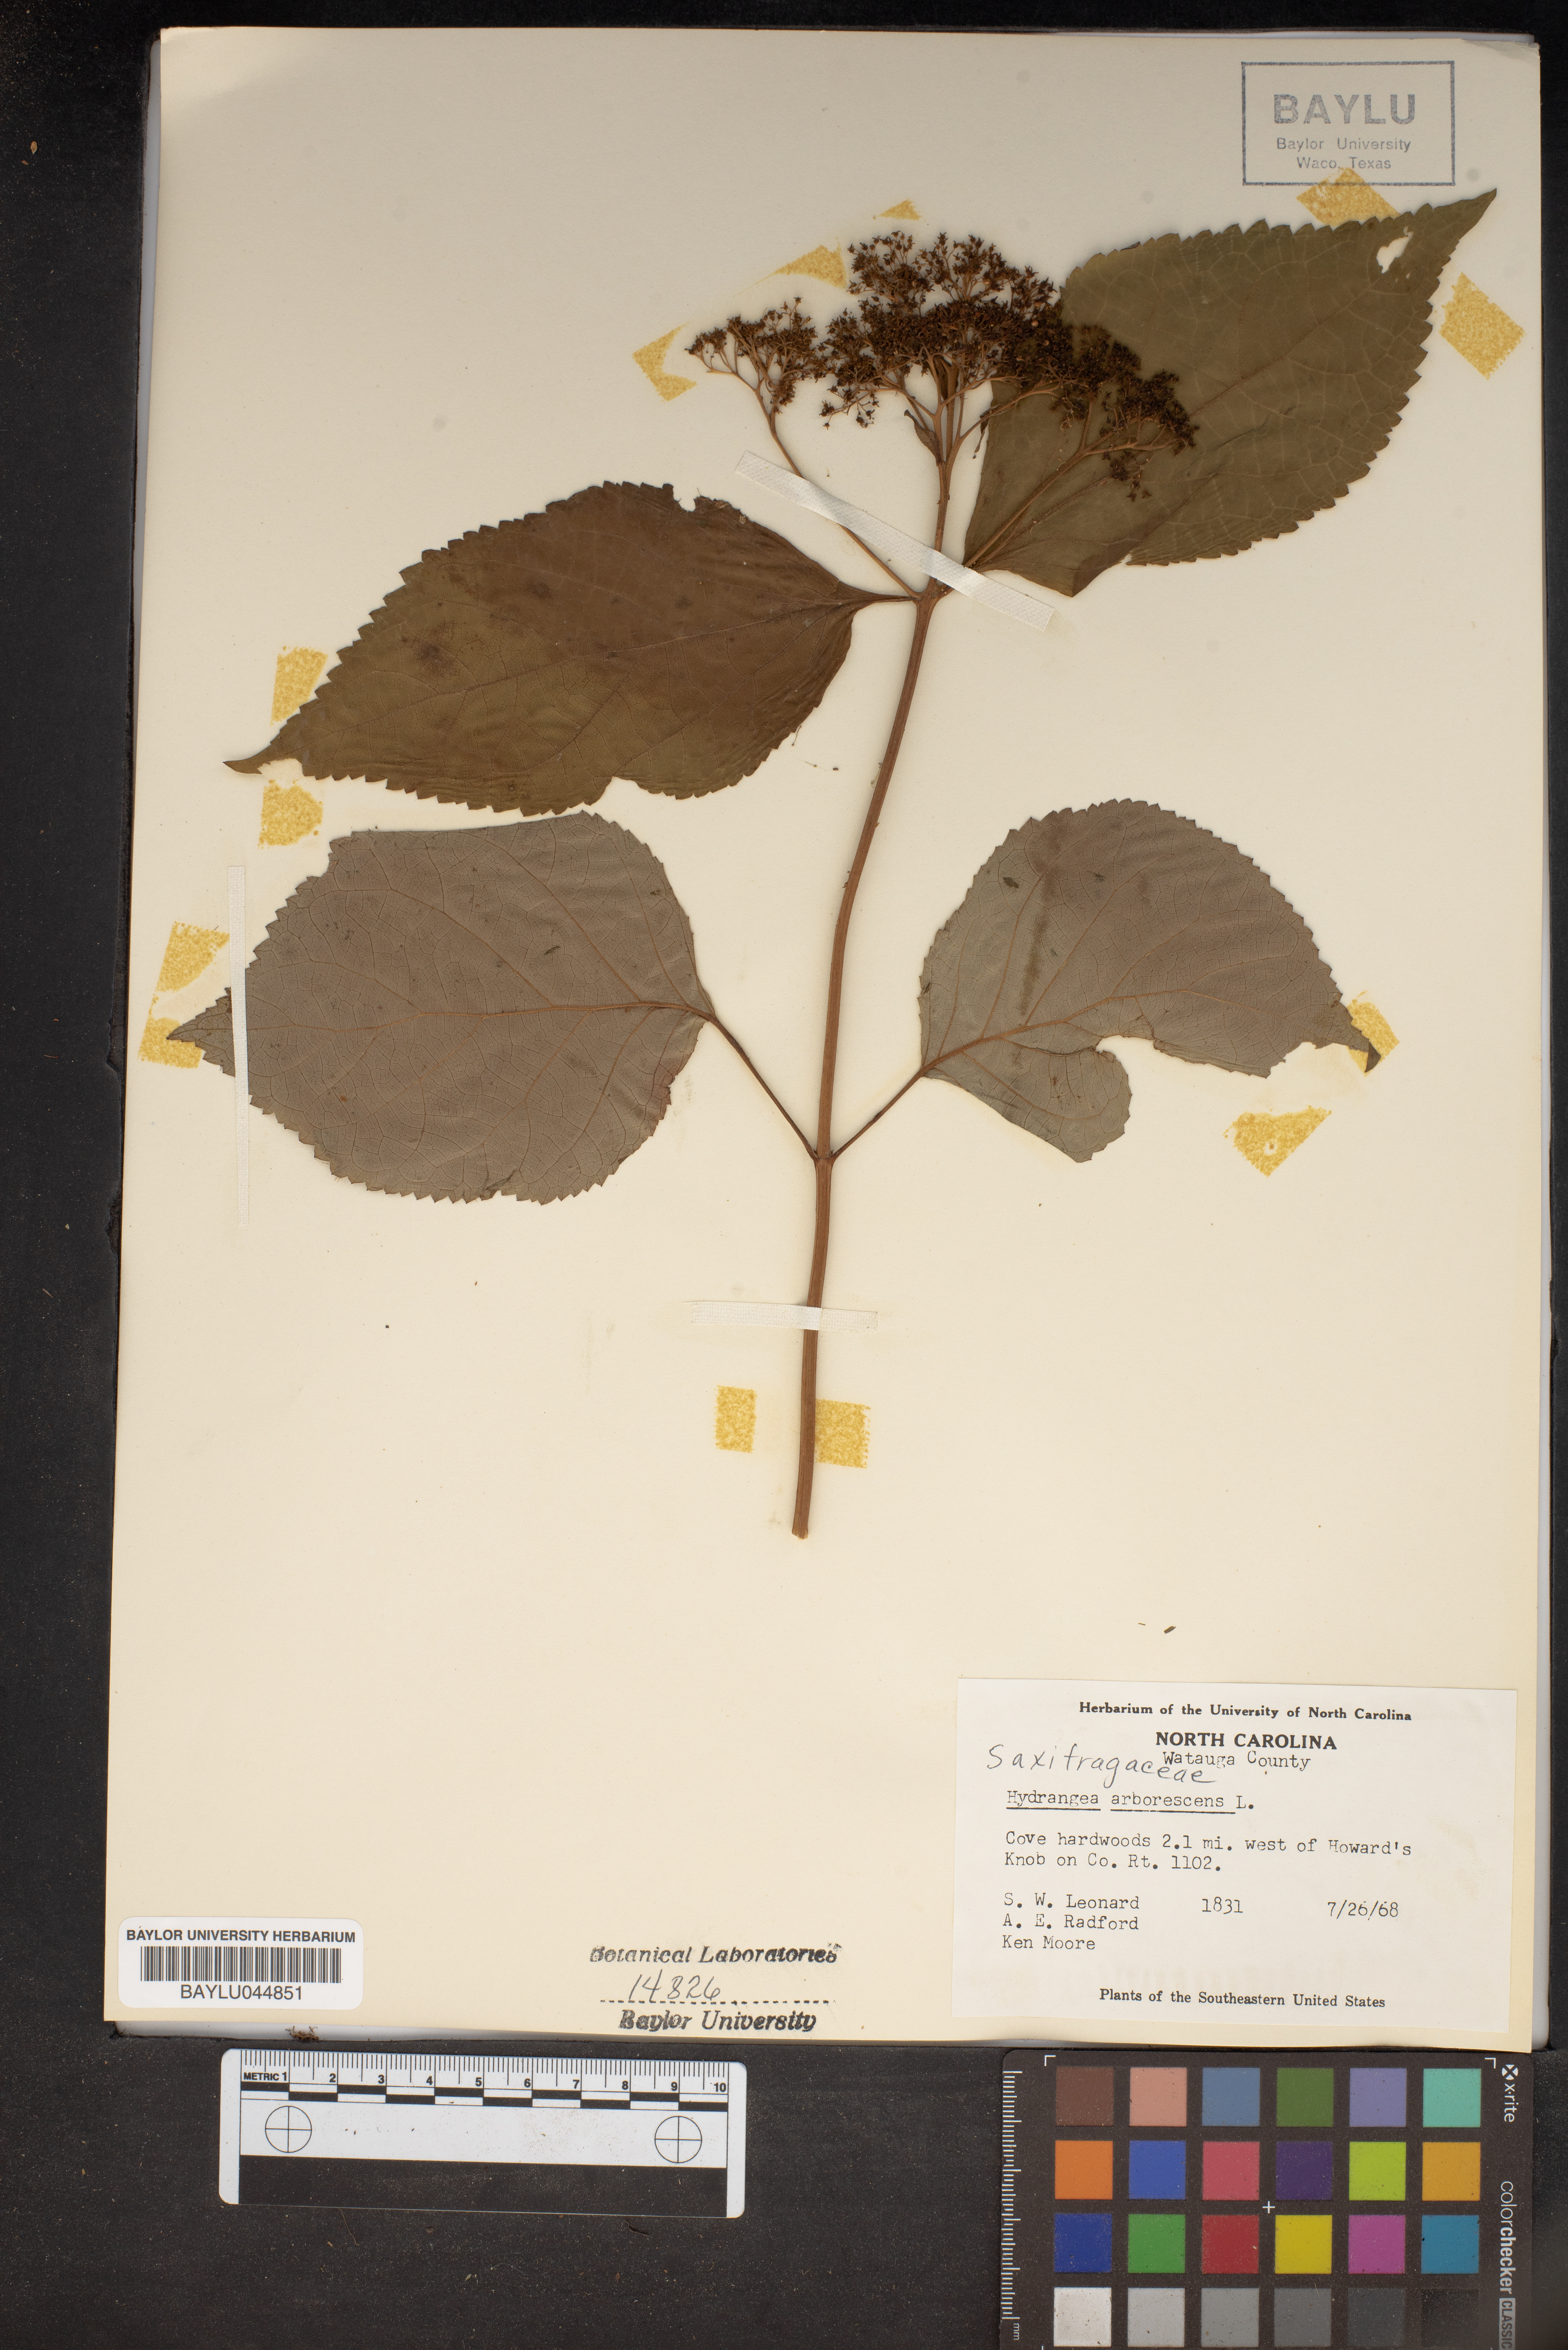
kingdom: Plantae
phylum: Tracheophyta
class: Magnoliopsida
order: Cornales
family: Hydrangeaceae
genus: Hydrangea
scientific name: Hydrangea arborescens
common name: Sevenbark
